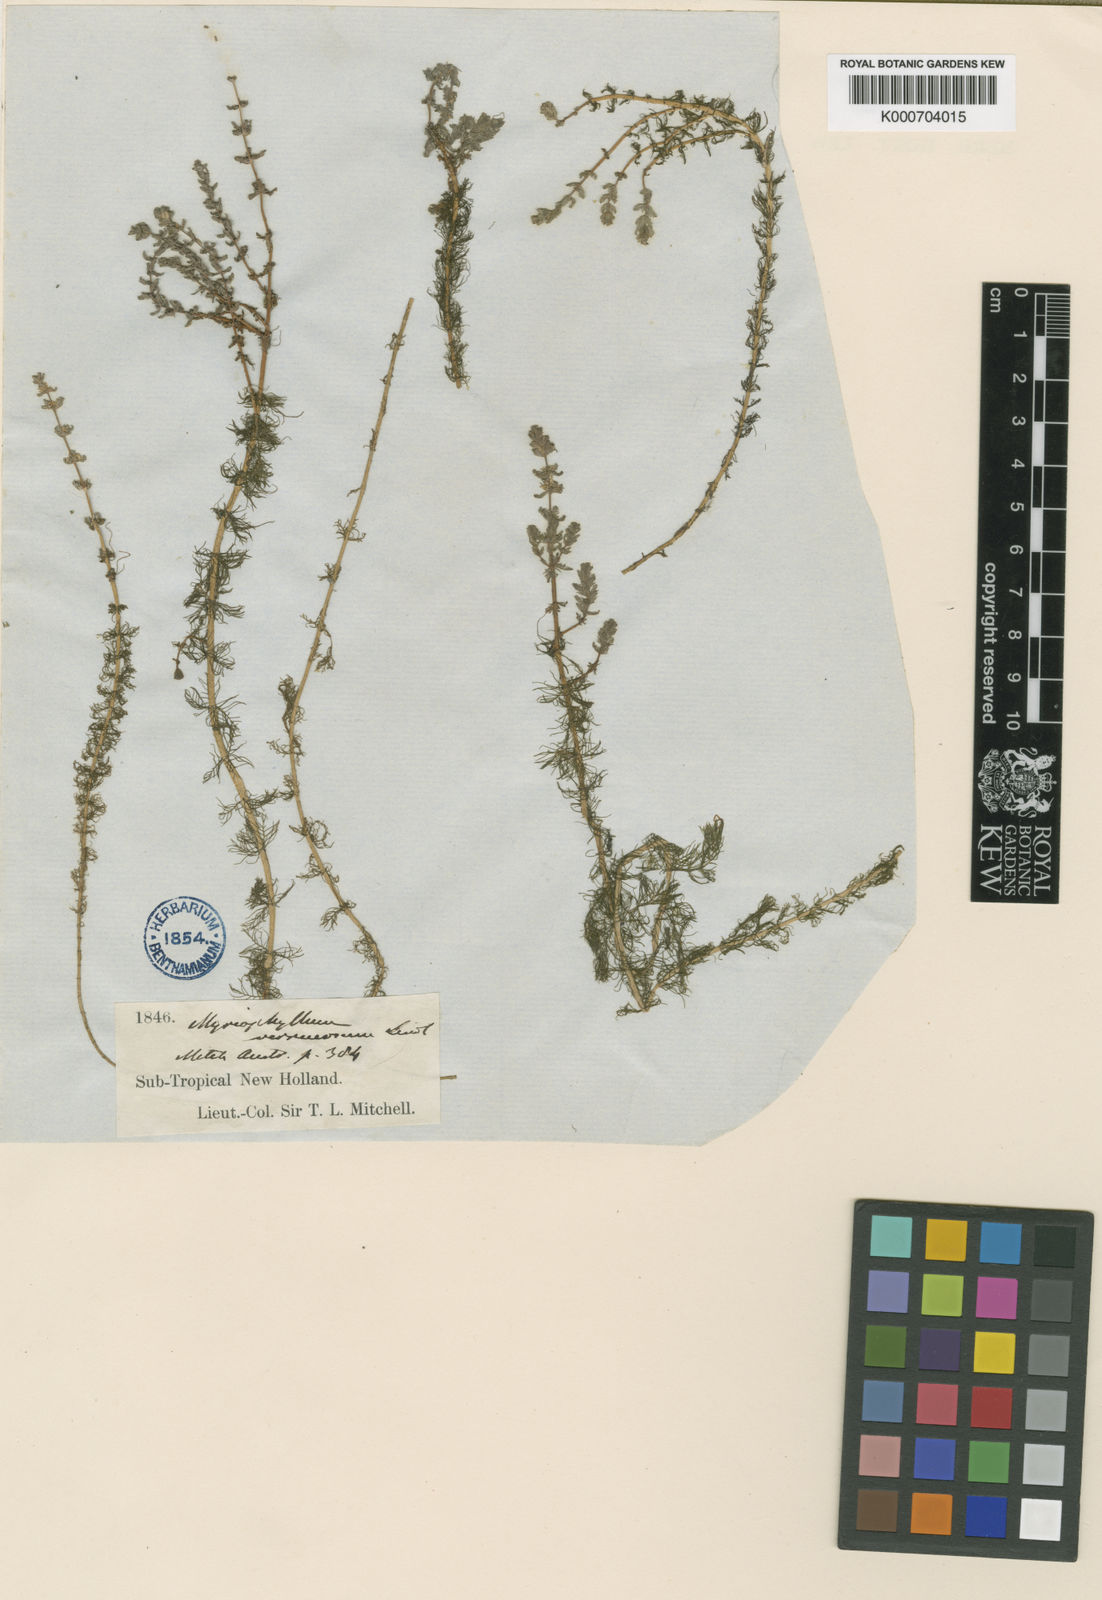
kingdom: Plantae
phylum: Tracheophyta
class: Magnoliopsida
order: Saxifragales
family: Haloragaceae
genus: Myriophyllum
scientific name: Myriophyllum verrucosum
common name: Red water-milfoil
